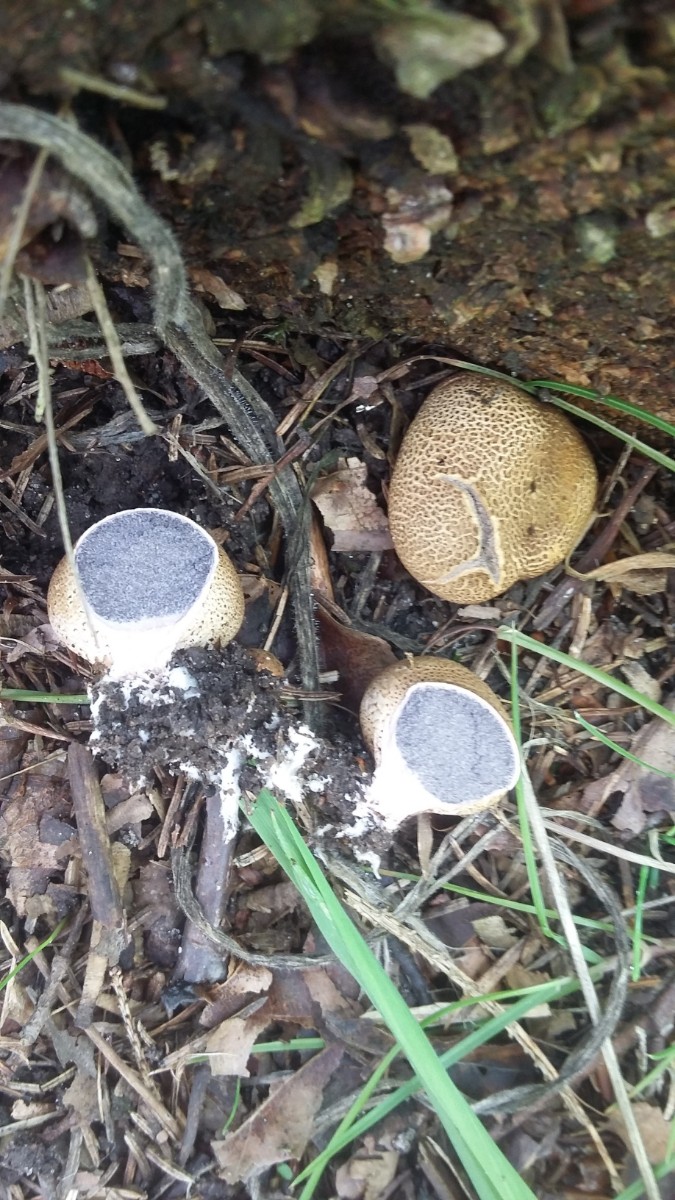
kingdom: Fungi
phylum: Basidiomycota
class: Agaricomycetes
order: Boletales
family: Sclerodermataceae
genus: Scleroderma
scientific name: Scleroderma verrucosum
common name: stilket bruskbold
